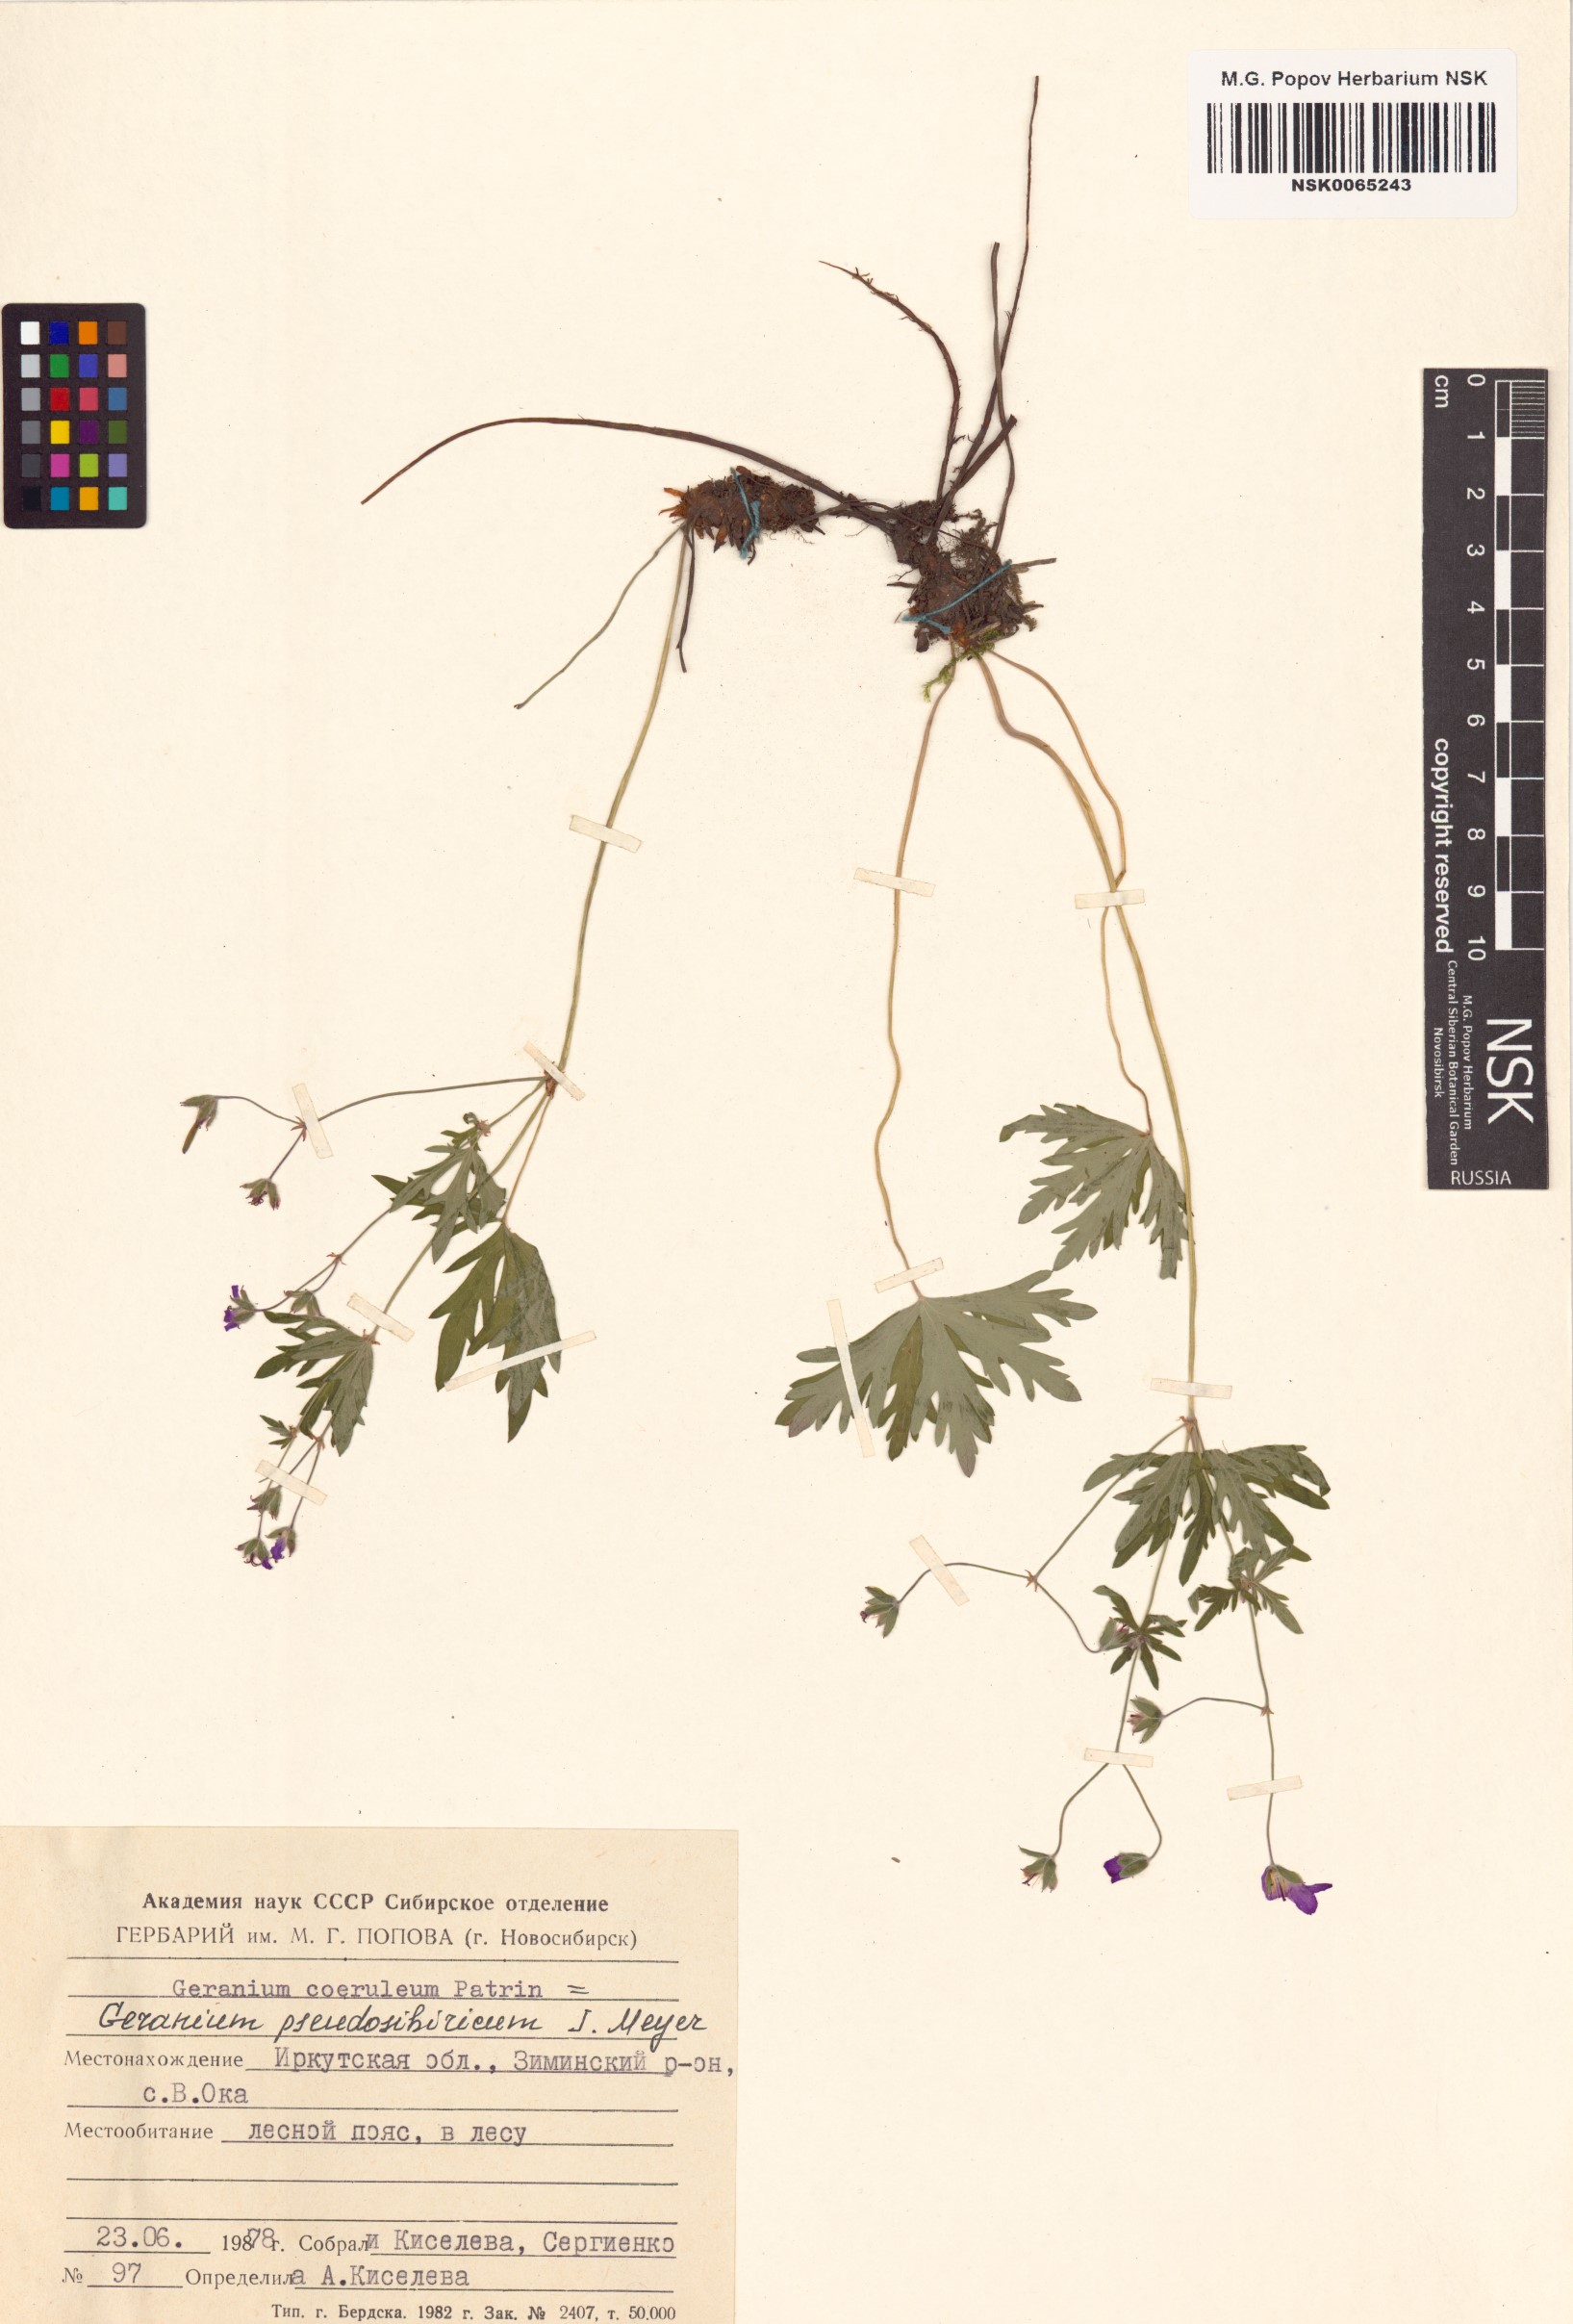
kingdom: Plantae
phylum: Tracheophyta
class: Magnoliopsida
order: Geraniales
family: Geraniaceae
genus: Geranium
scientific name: Geranium pseudosibiricum
